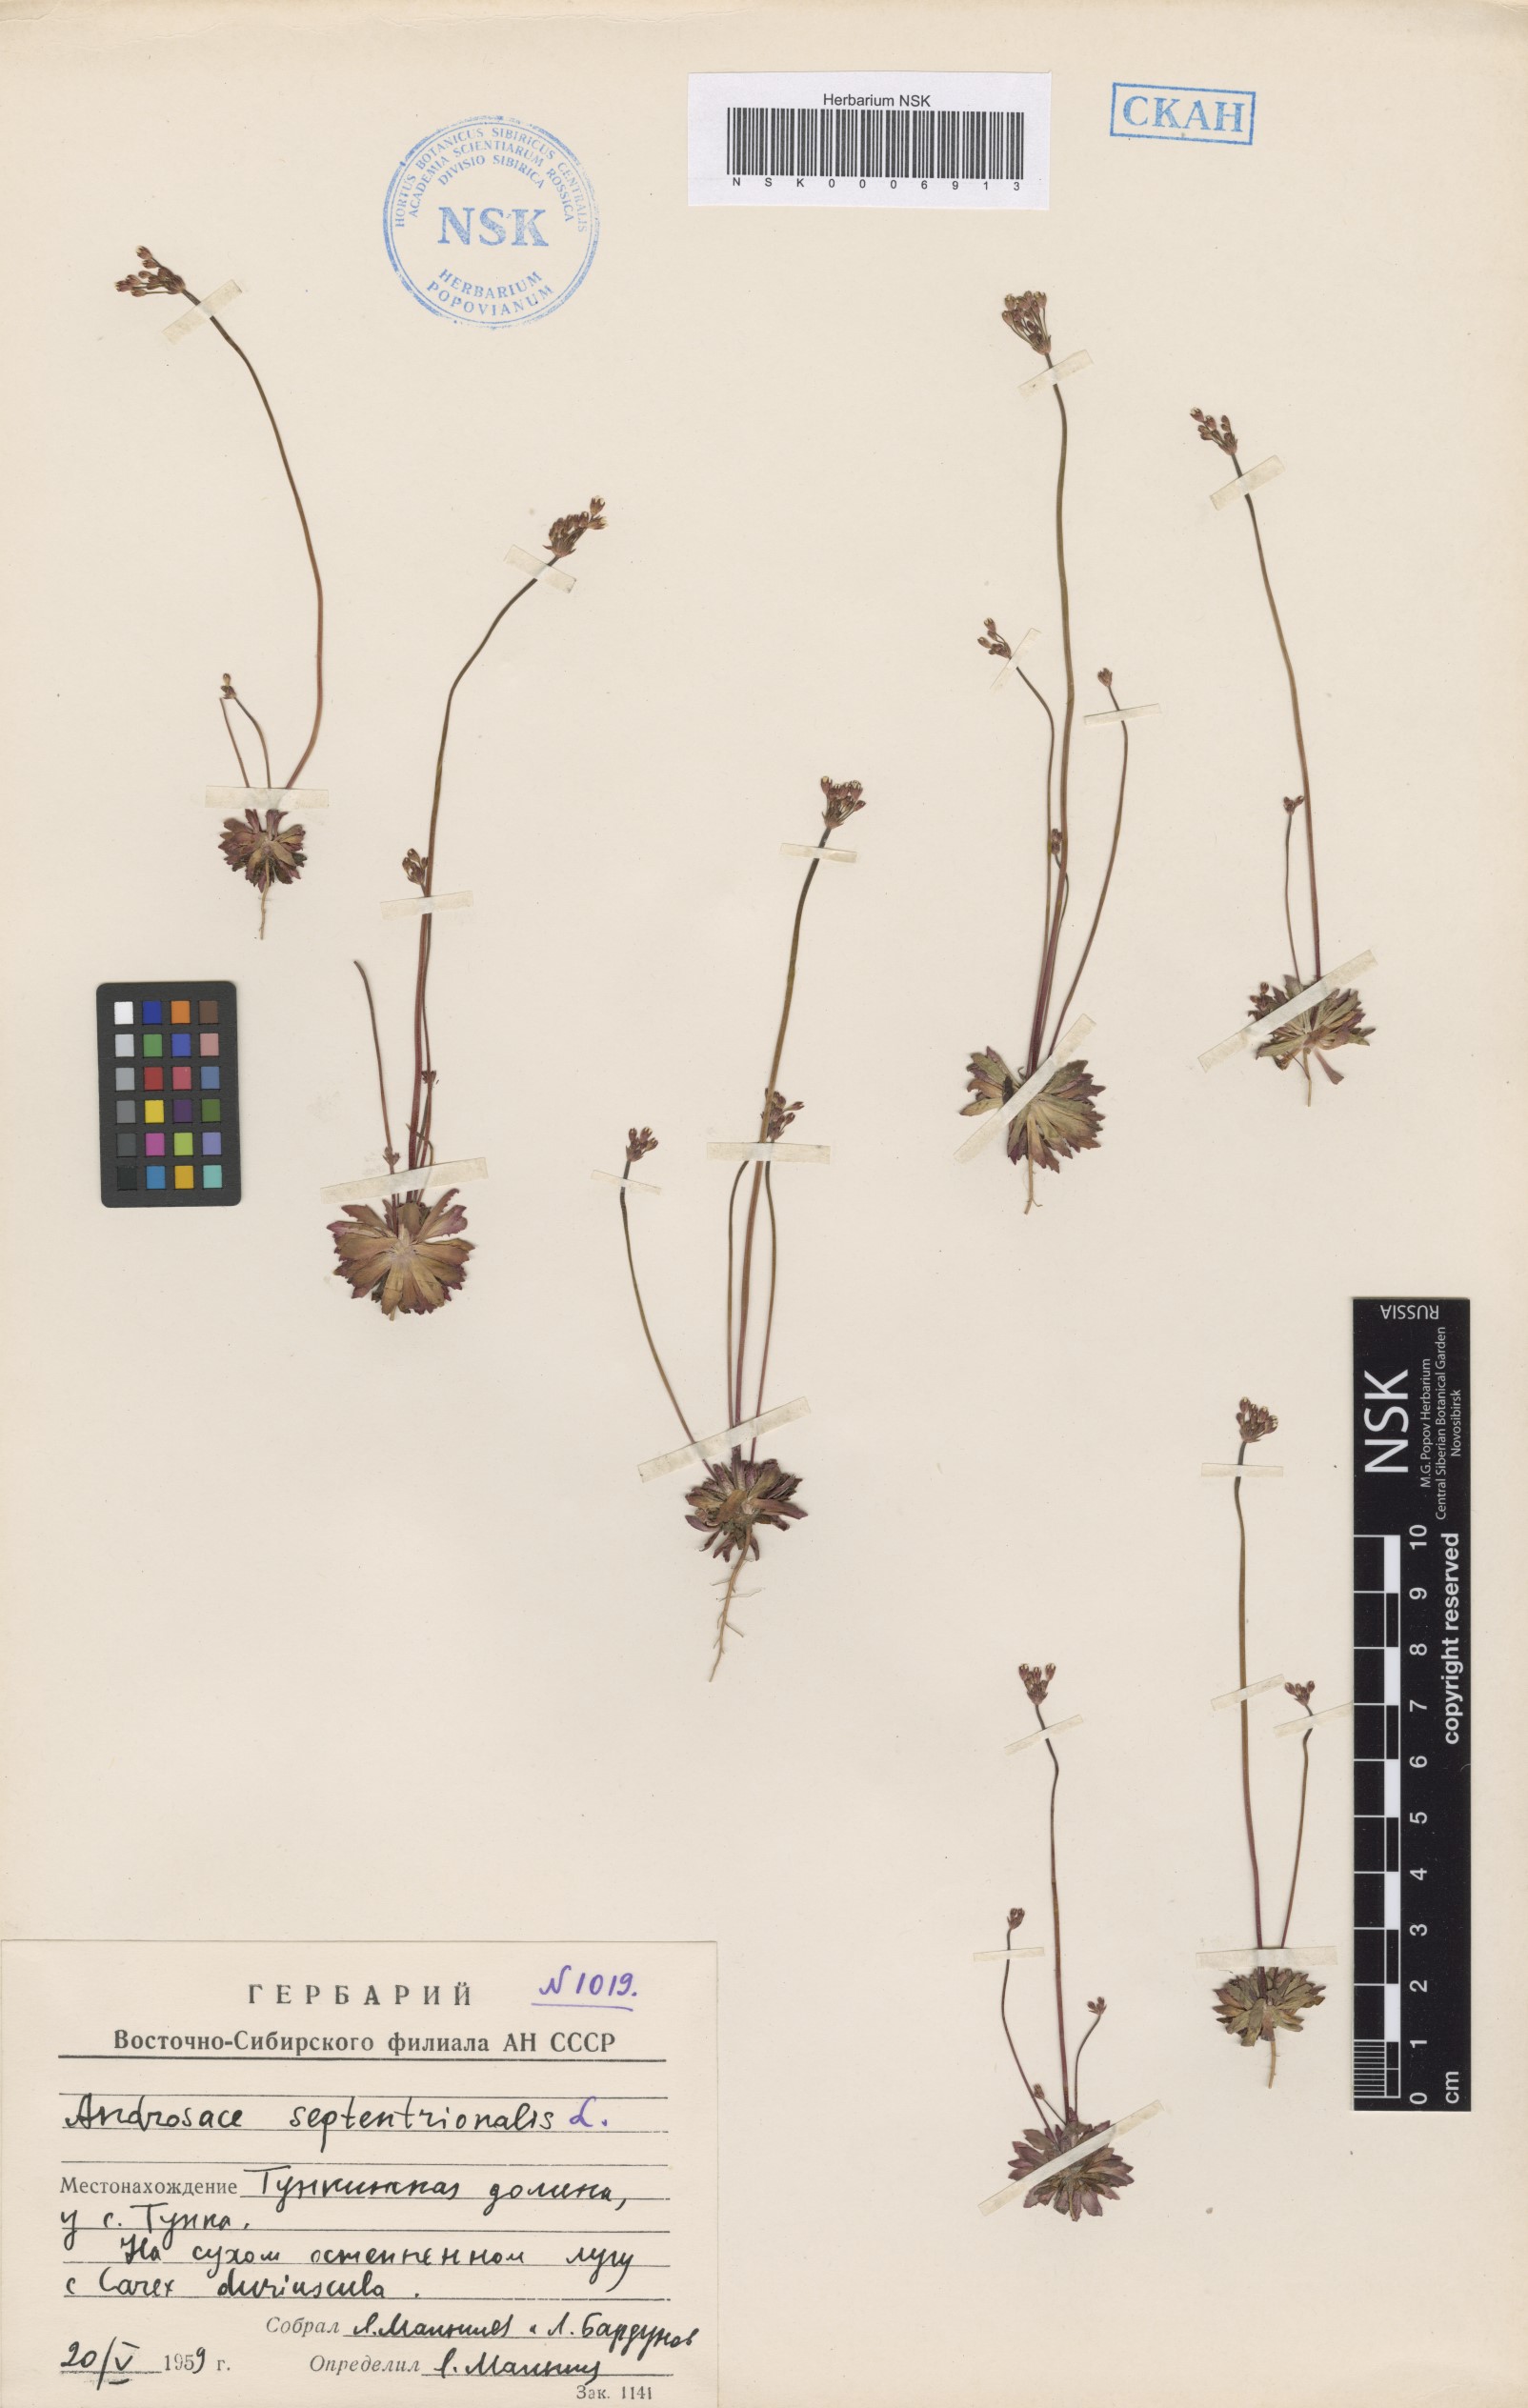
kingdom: Plantae
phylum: Tracheophyta
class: Magnoliopsida
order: Ericales
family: Primulaceae
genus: Androsace
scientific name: Androsace septentrionalis
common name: Hairy northern fairy-candelabra
